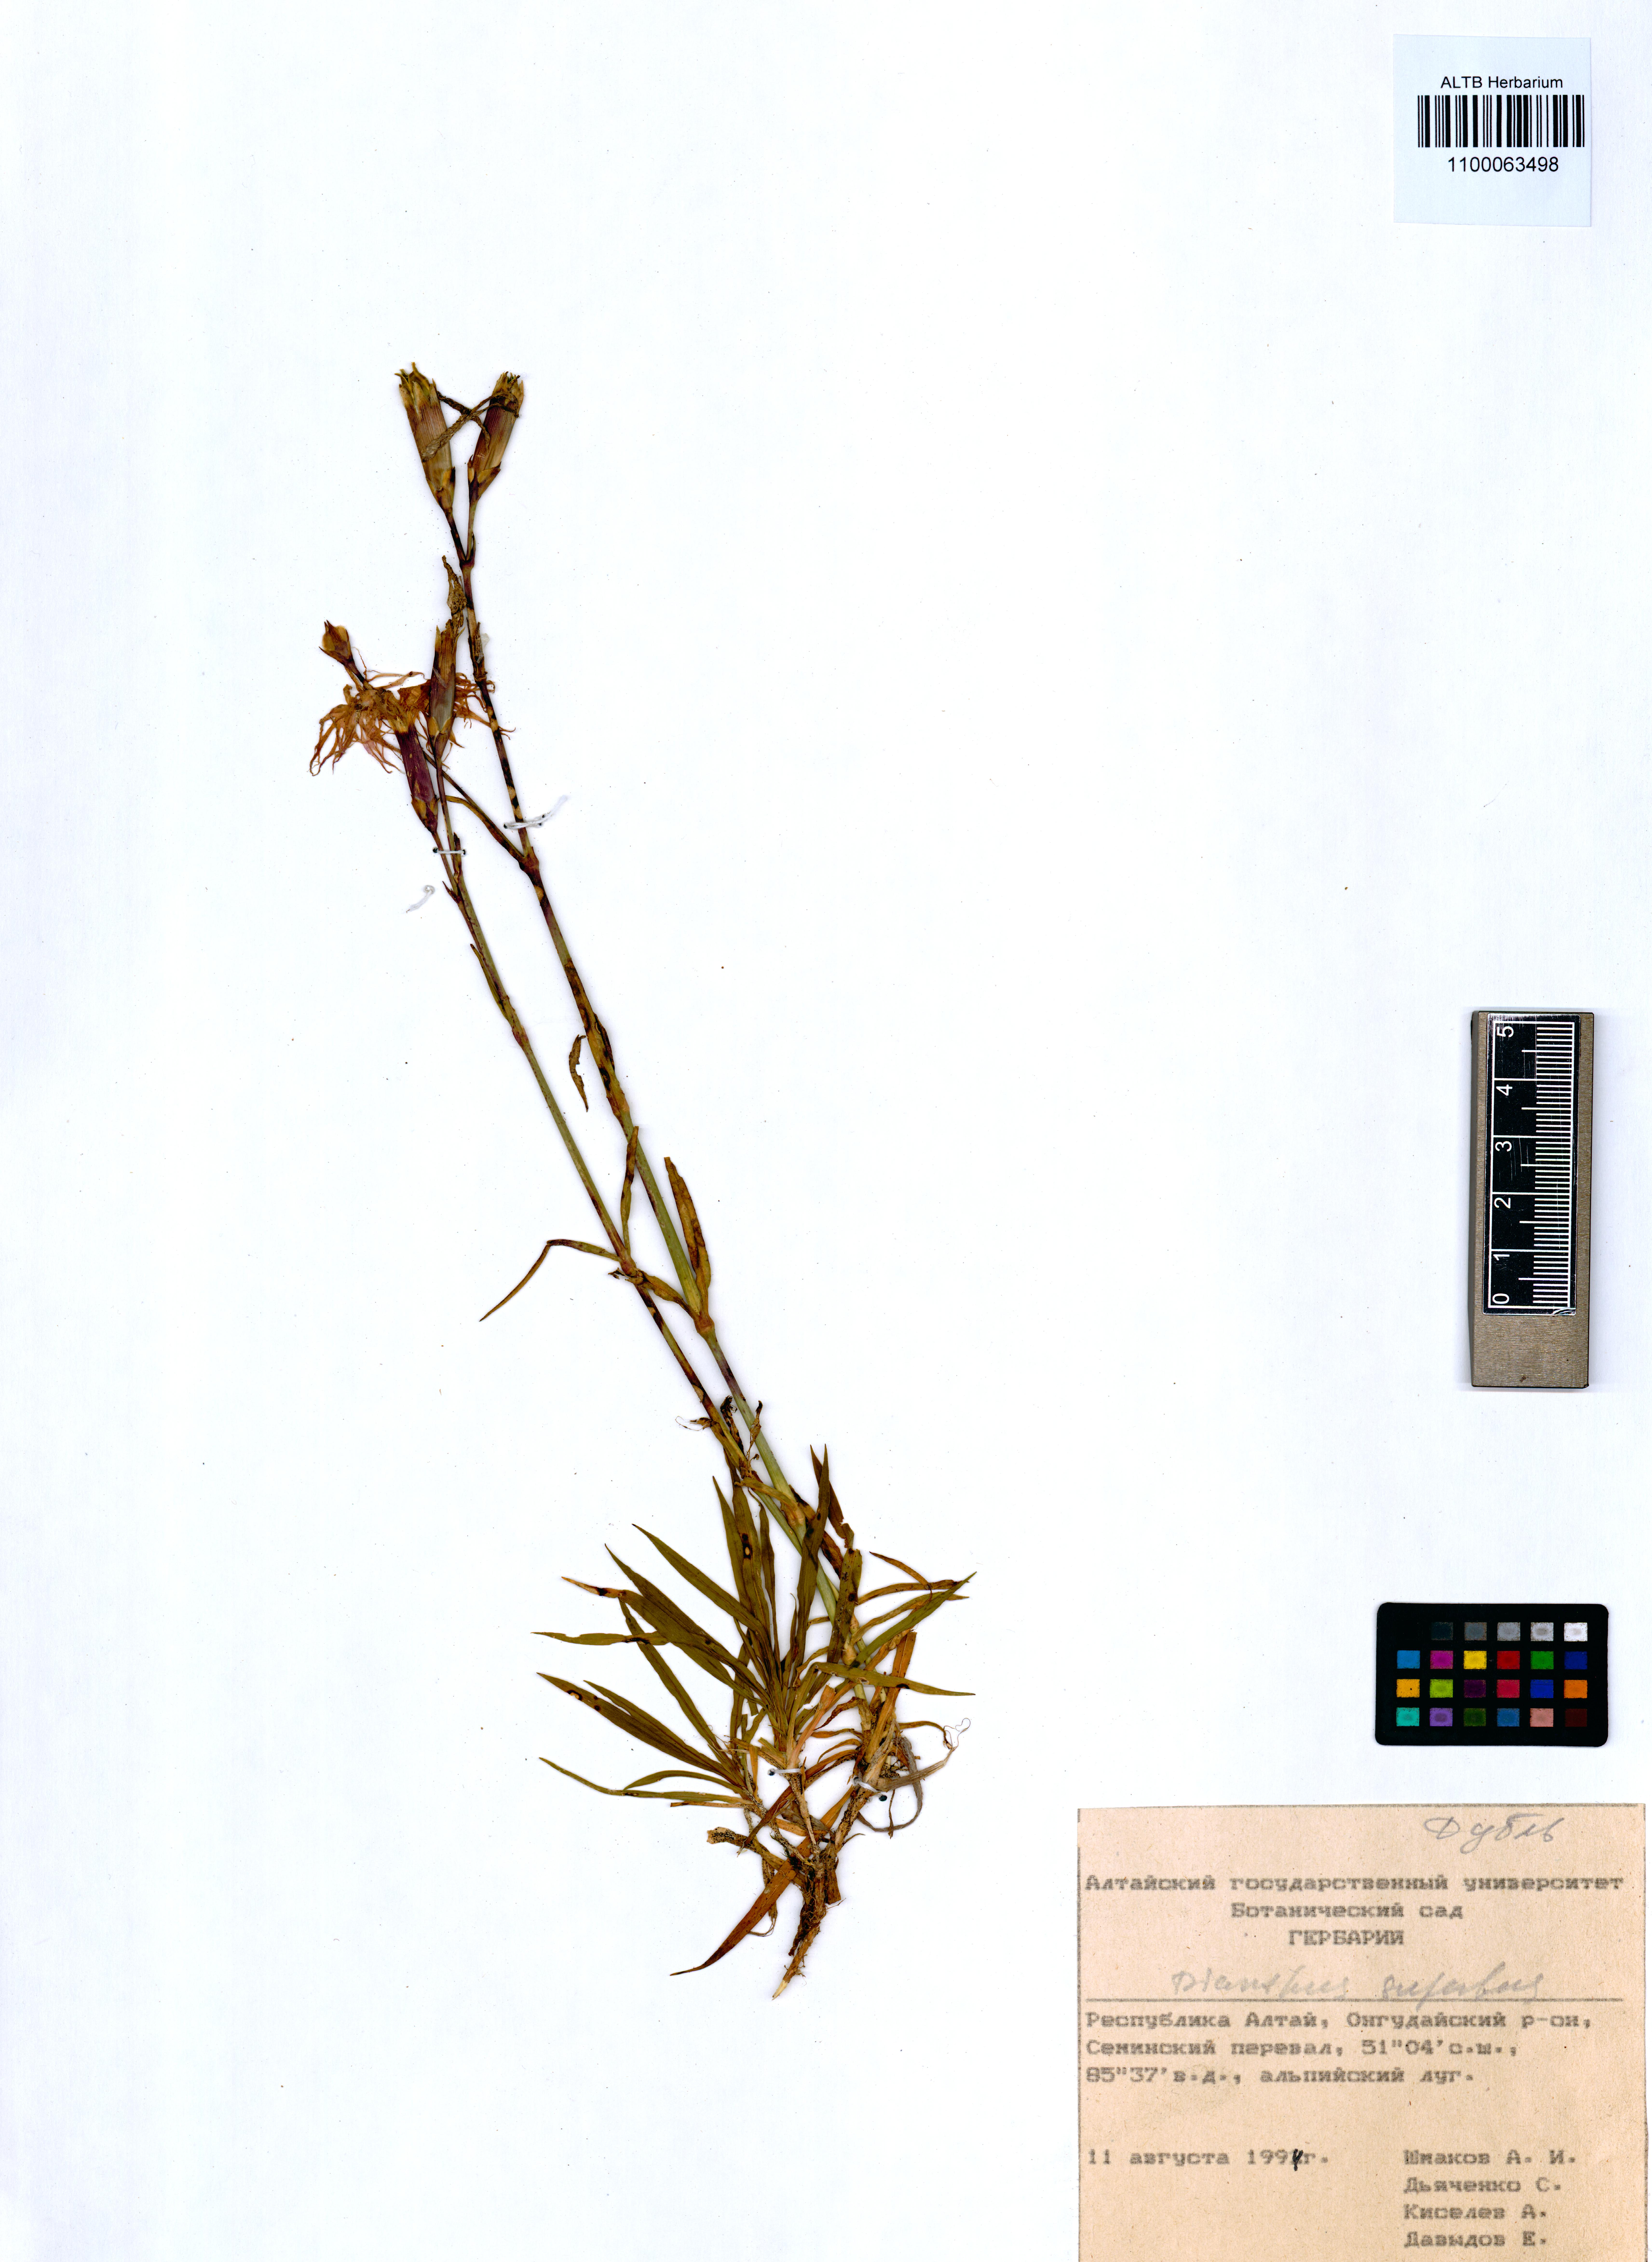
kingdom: Plantae
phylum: Tracheophyta
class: Magnoliopsida
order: Caryophyllales
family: Caryophyllaceae
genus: Dianthus
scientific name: Dianthus superbus
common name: Fringed pink
